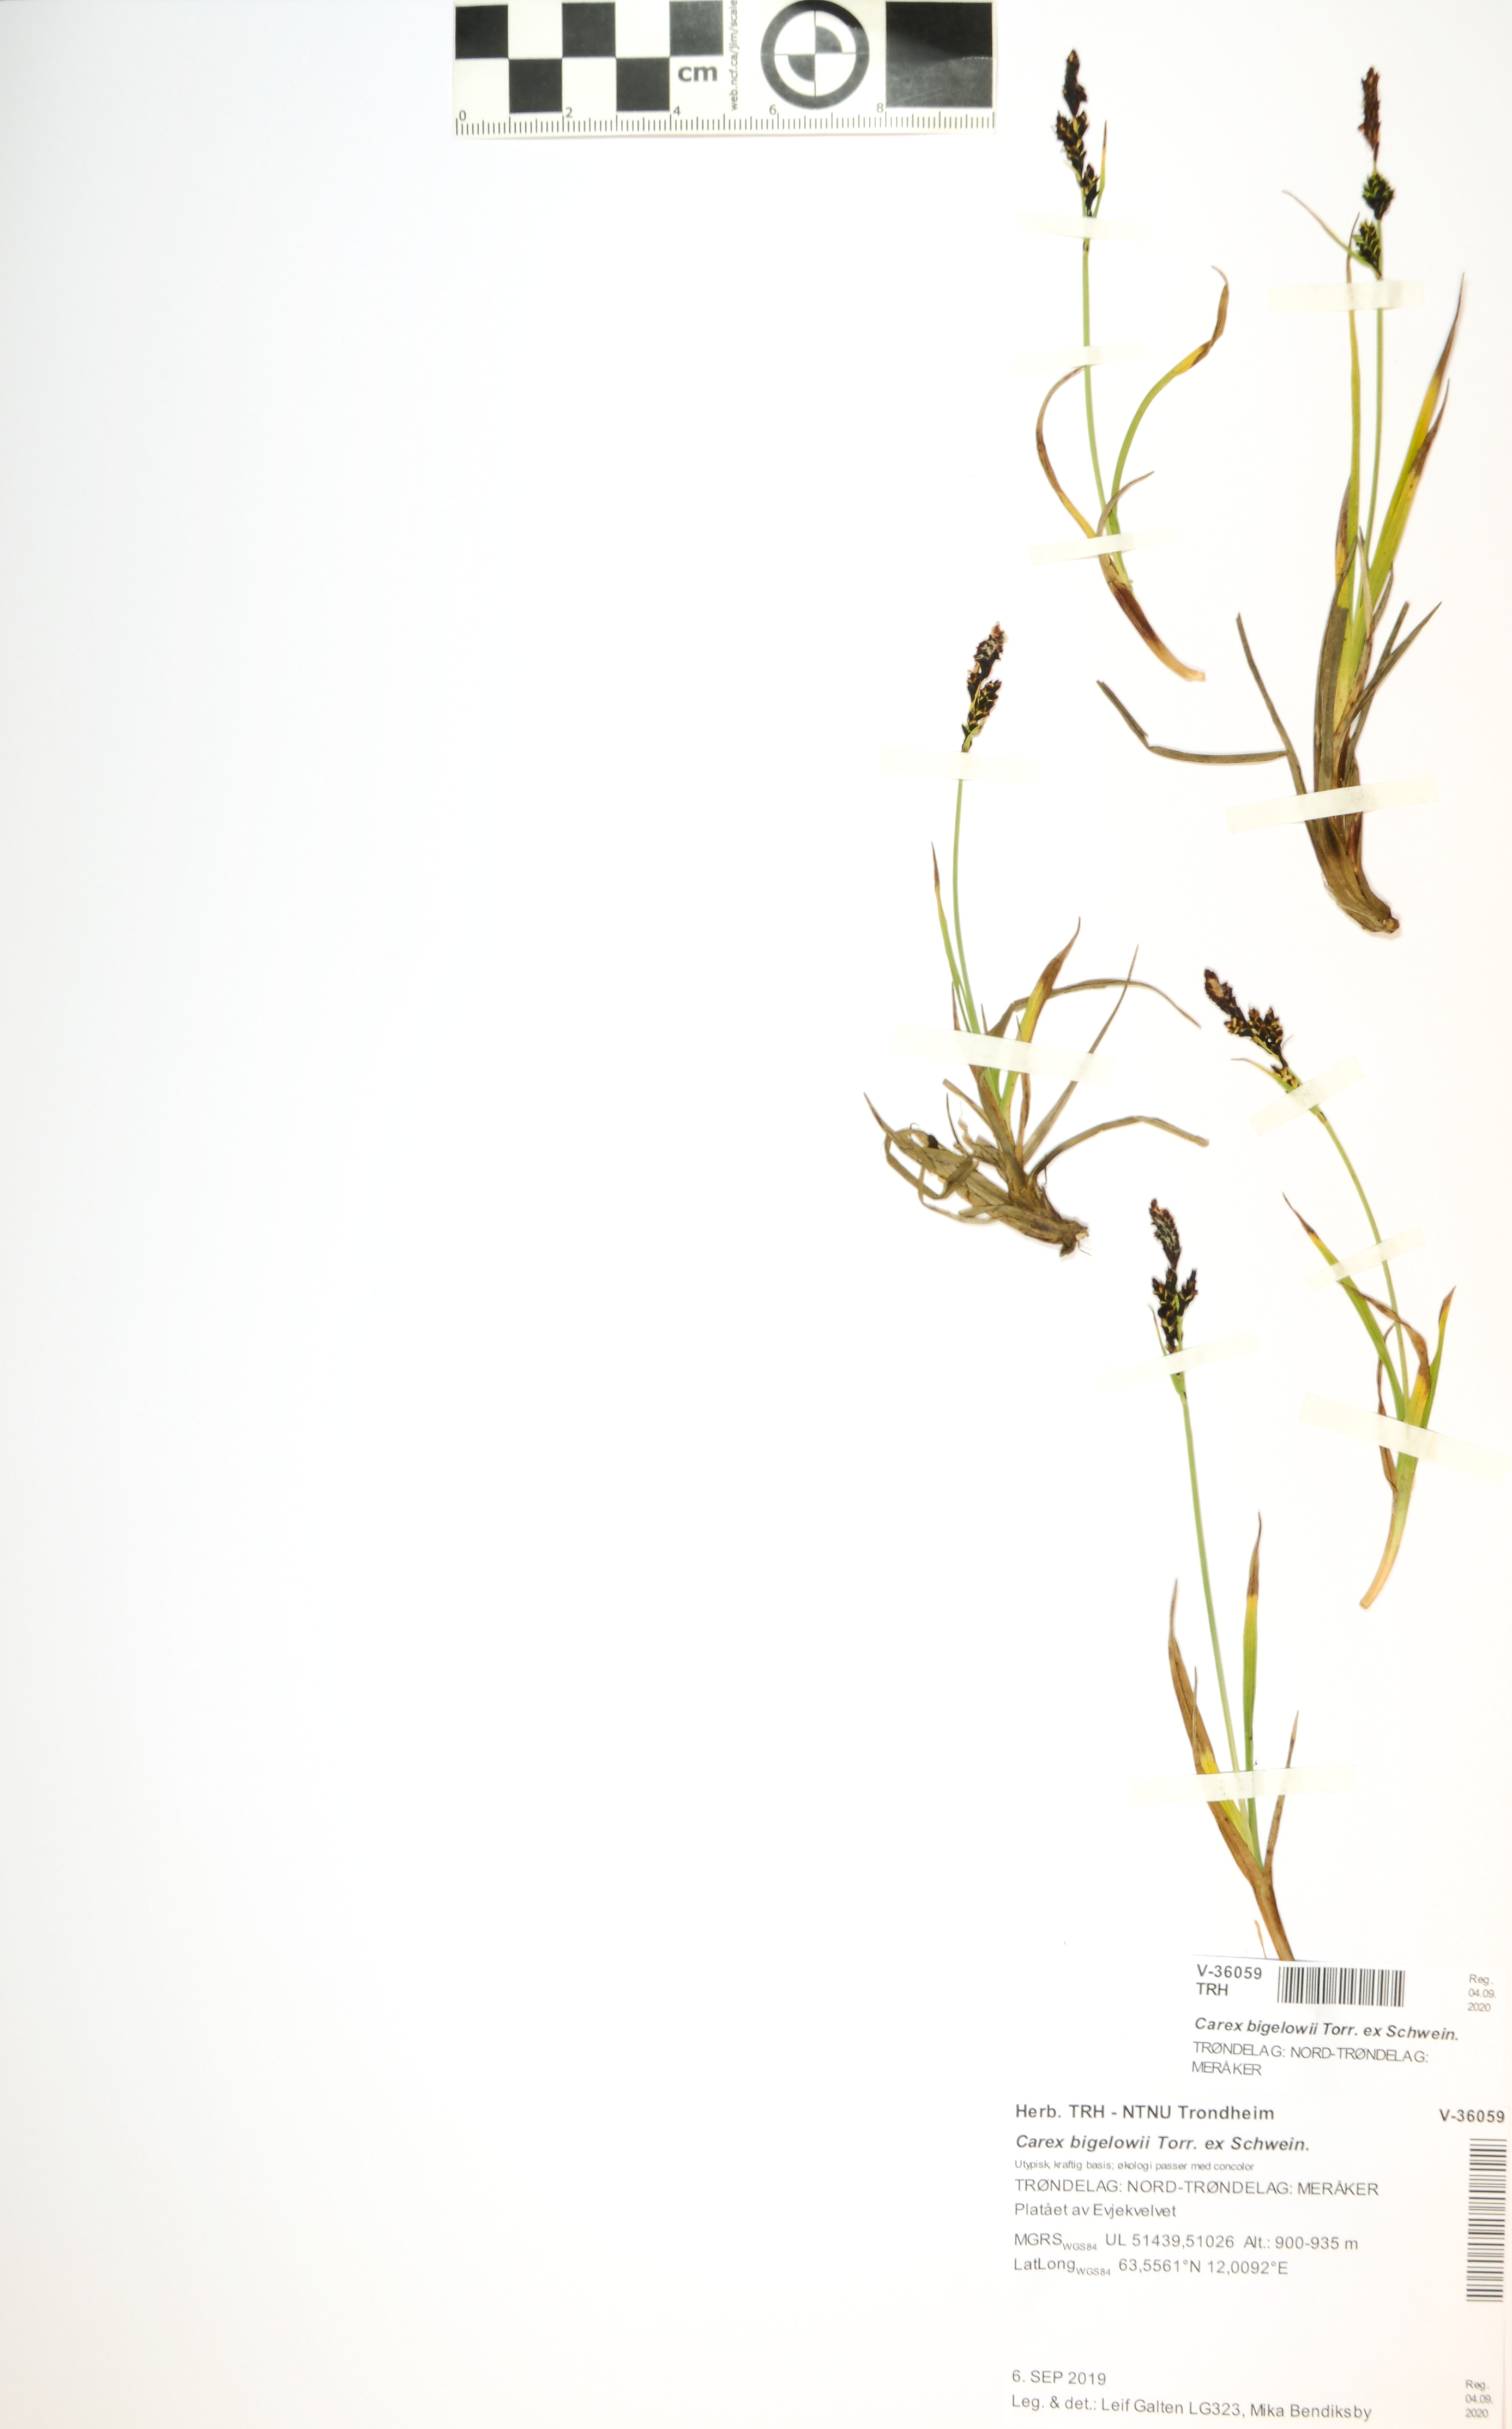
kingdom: Plantae
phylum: Tracheophyta
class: Liliopsida
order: Poales
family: Cyperaceae
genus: Carex
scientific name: Carex bigelowii
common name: Stiff sedge
